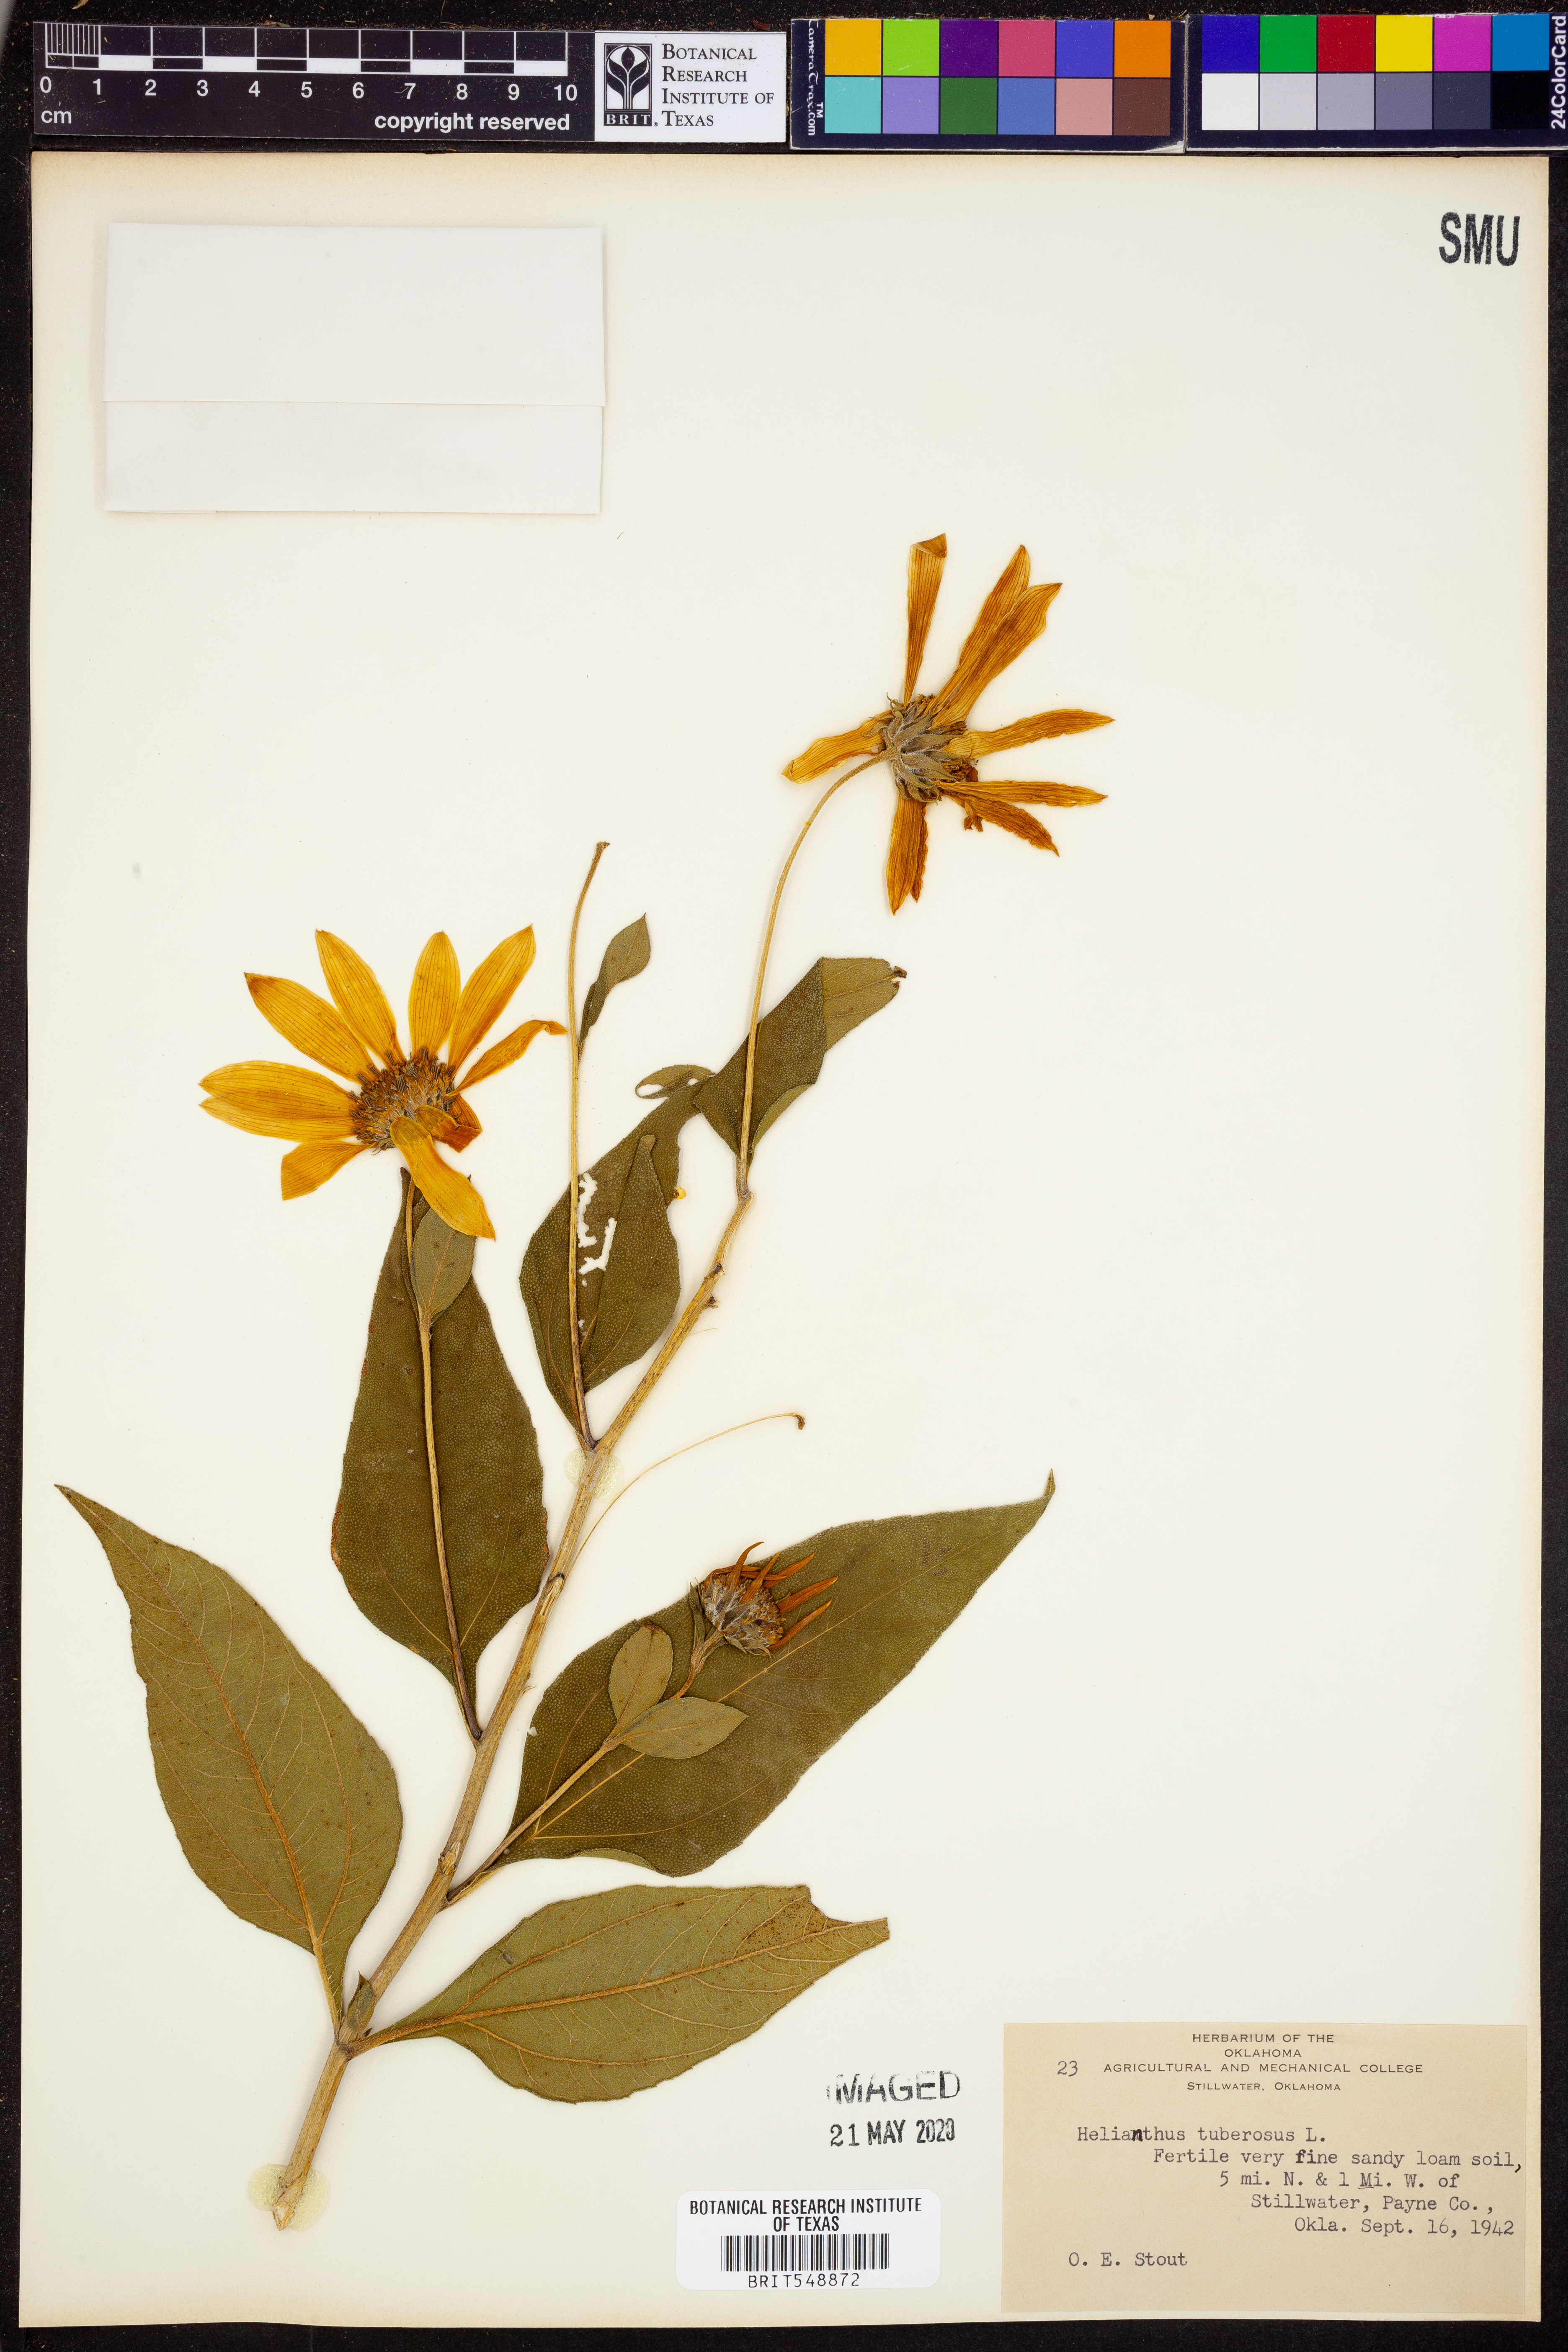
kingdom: Plantae
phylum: Tracheophyta
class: Magnoliopsida
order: Asterales
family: Asteraceae
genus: Helianthus
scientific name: Helianthus tuberosus
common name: Jerusalem artichoke
